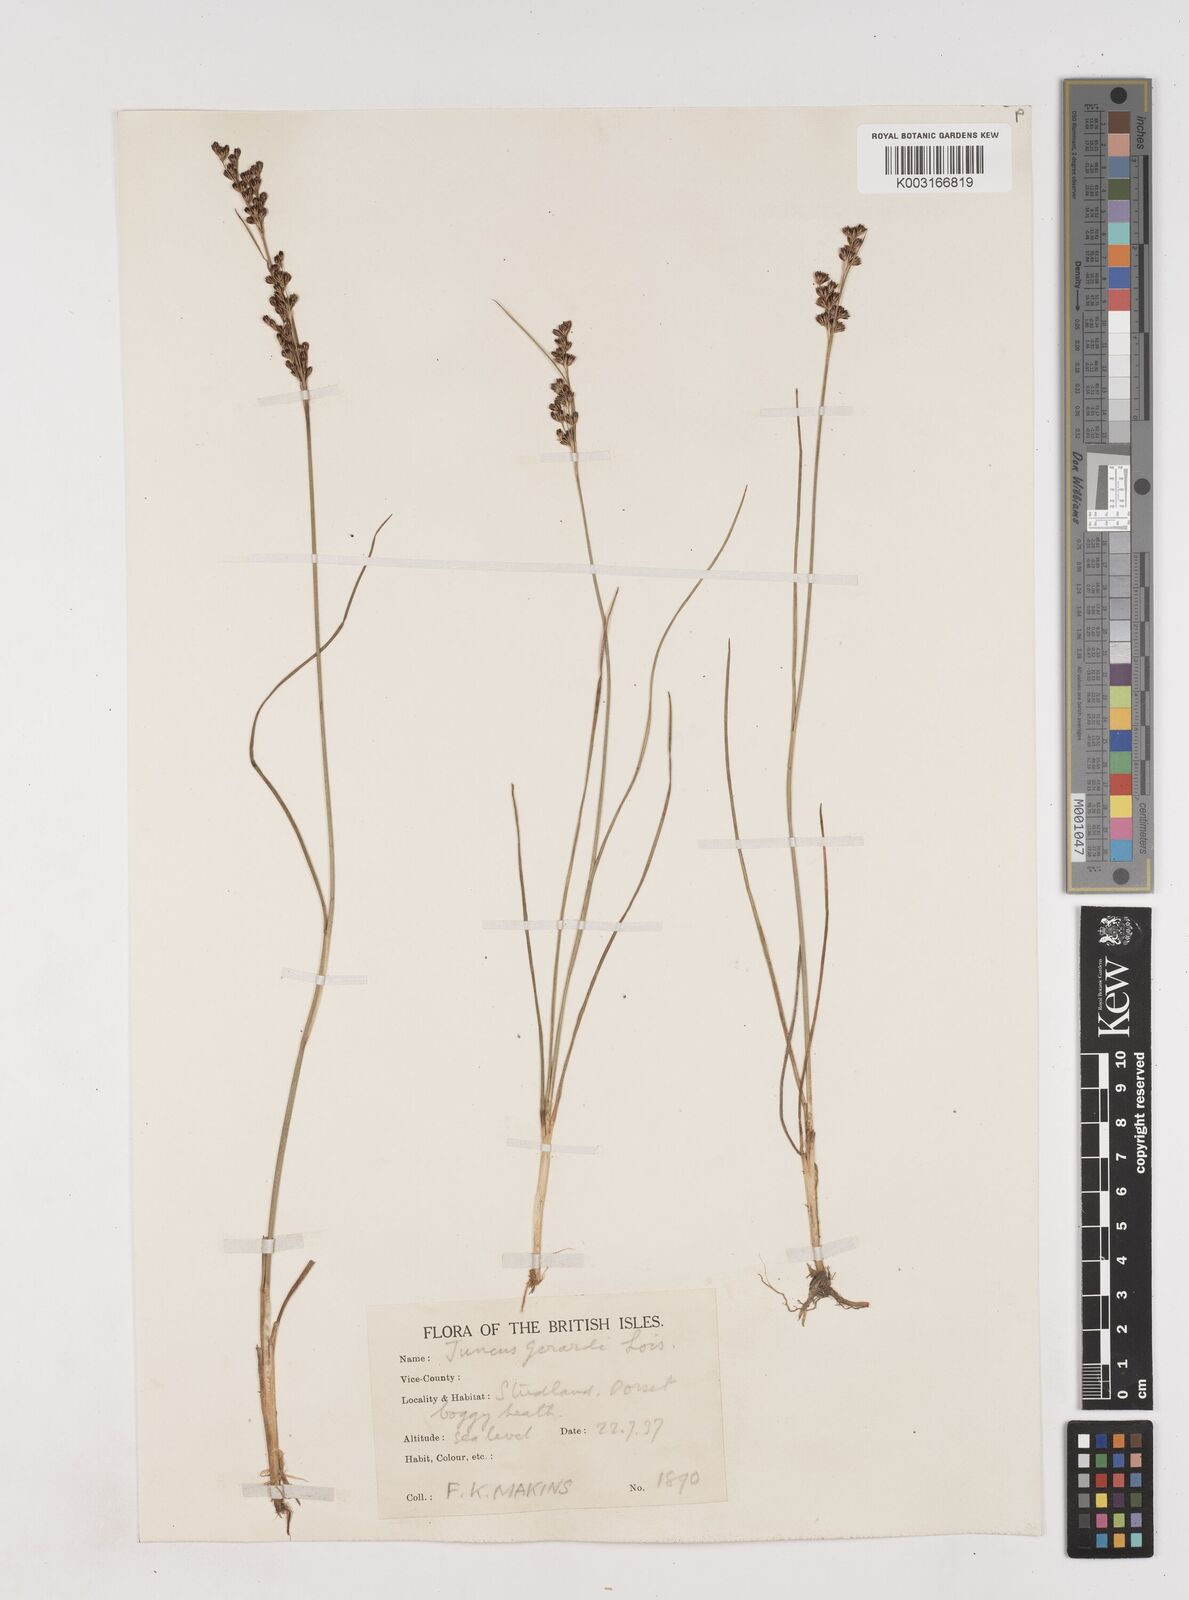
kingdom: Plantae
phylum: Tracheophyta
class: Liliopsida
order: Poales
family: Juncaceae
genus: Juncus
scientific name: Juncus gerardi
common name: Saltmarsh rush
